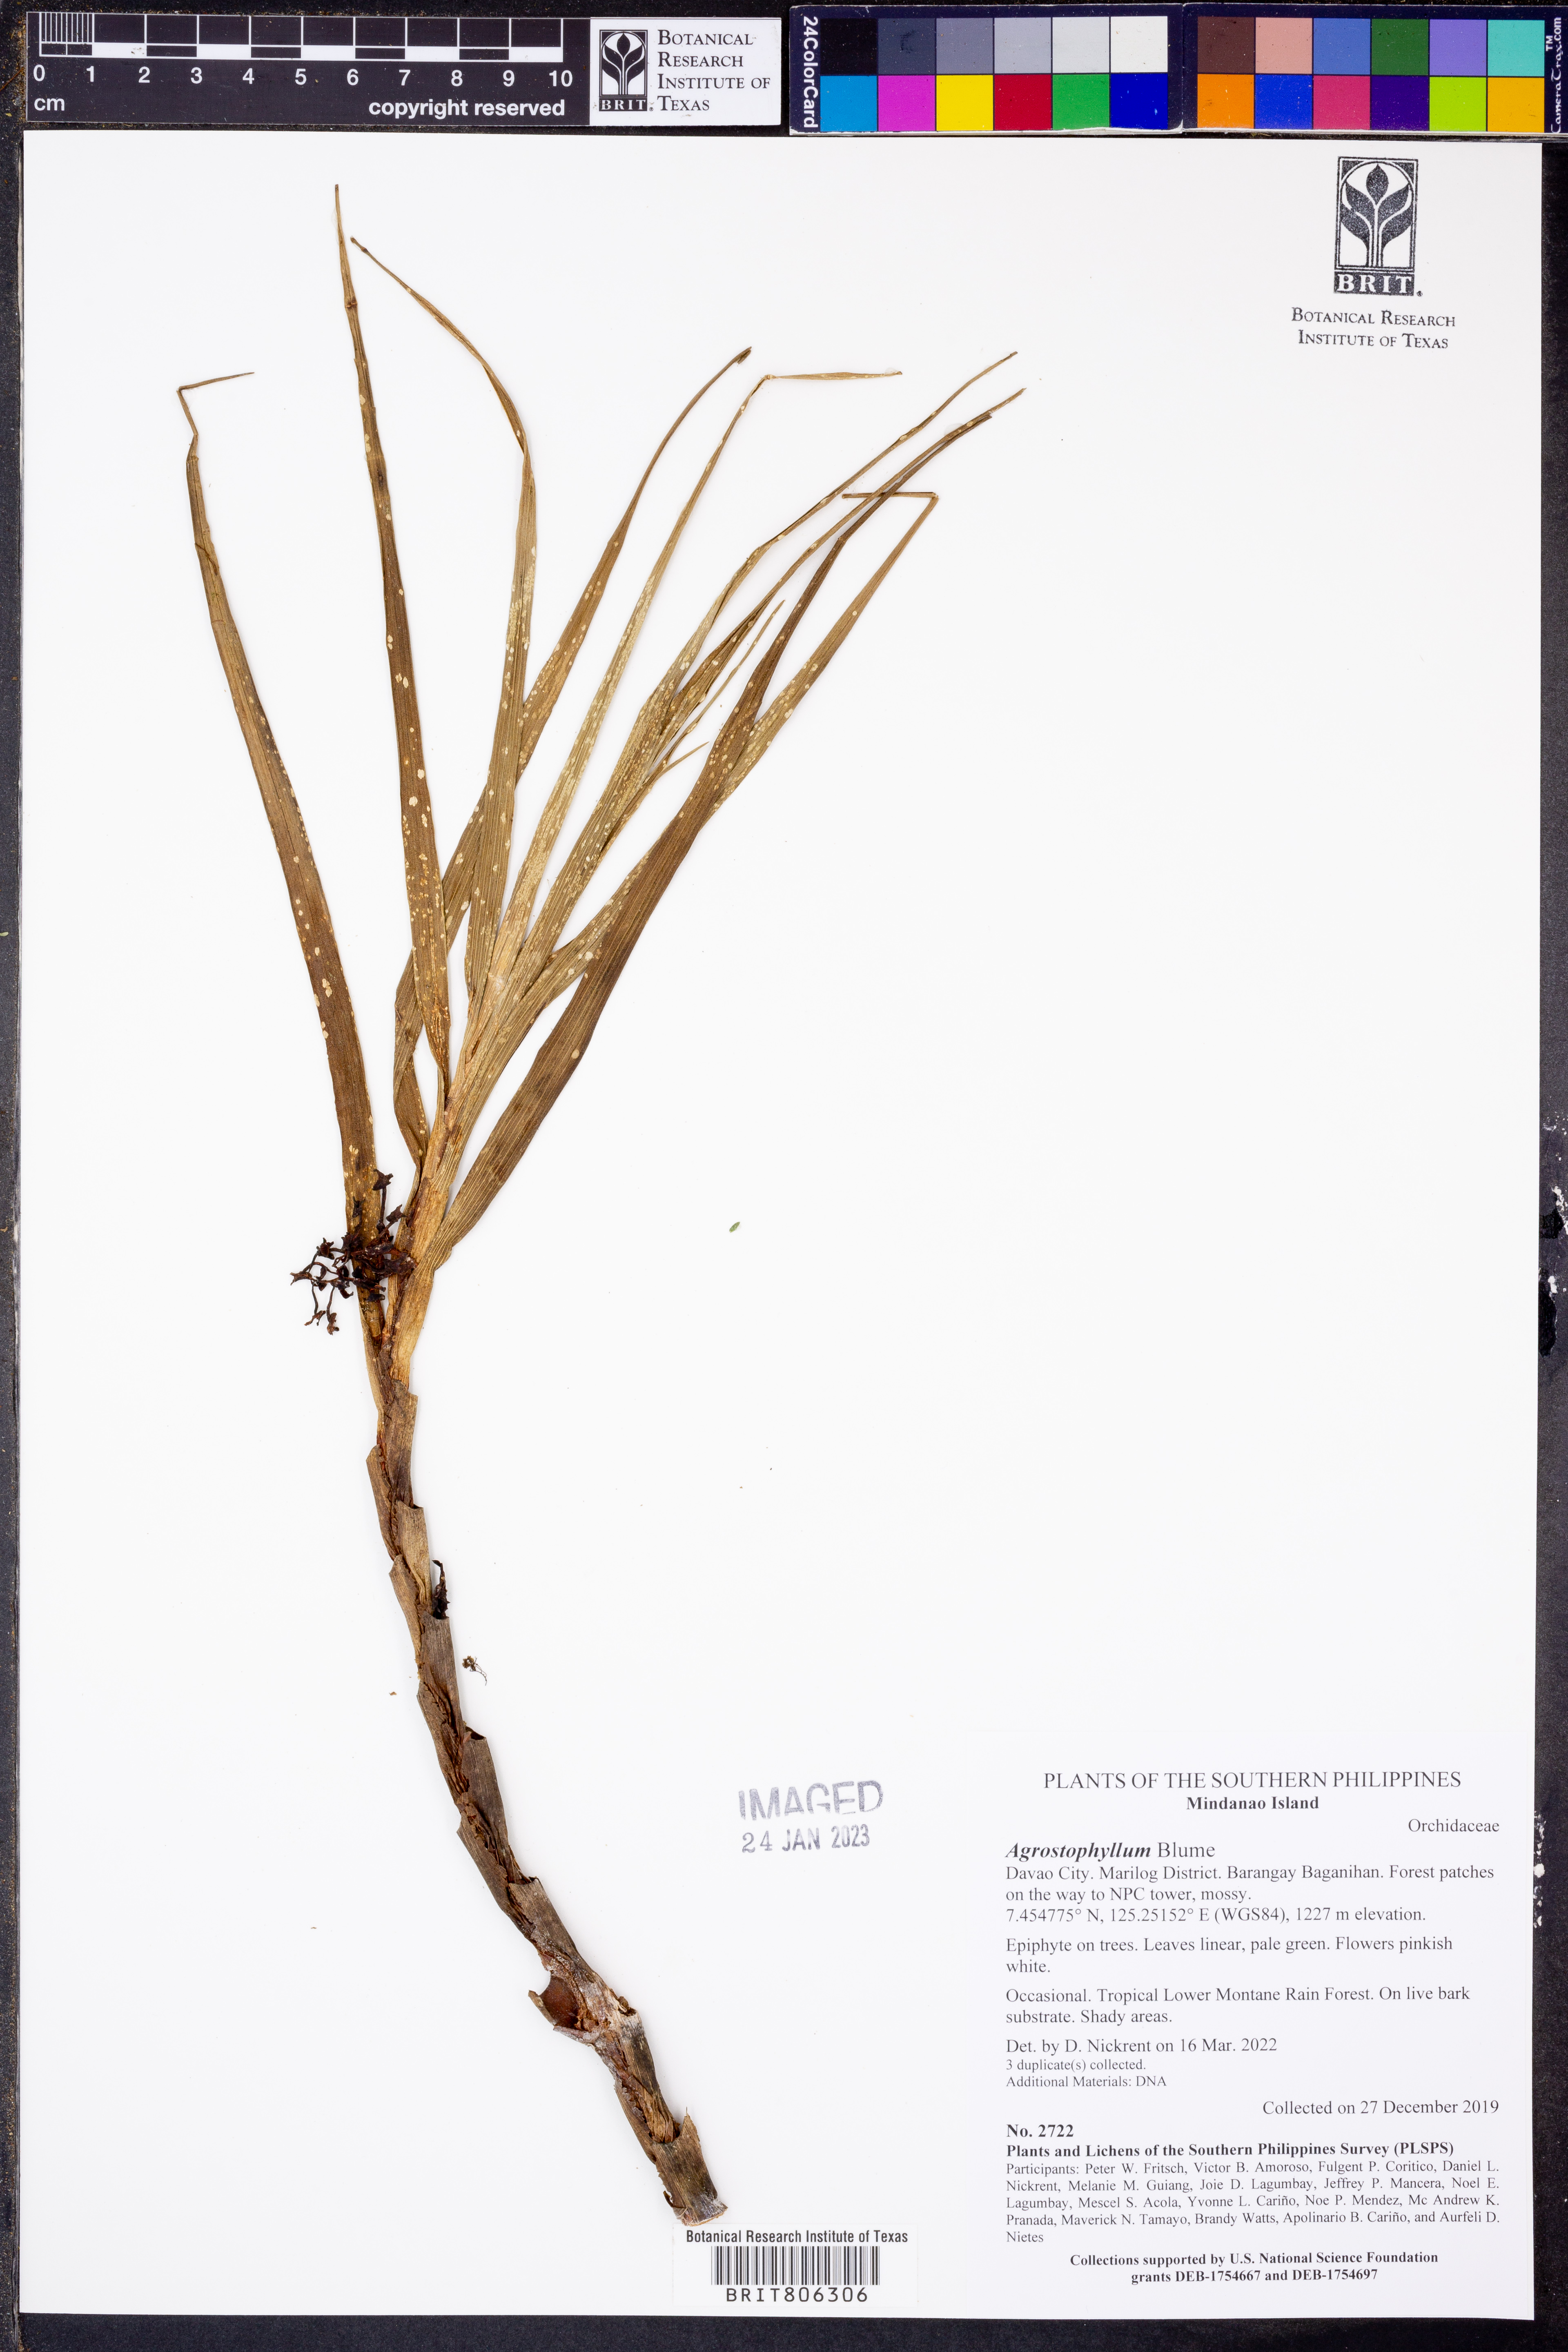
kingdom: Plantae
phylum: Tracheophyta
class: Liliopsida
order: Asparagales
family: Orchidaceae
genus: Agrostophyllum
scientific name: Agrostophyllum
